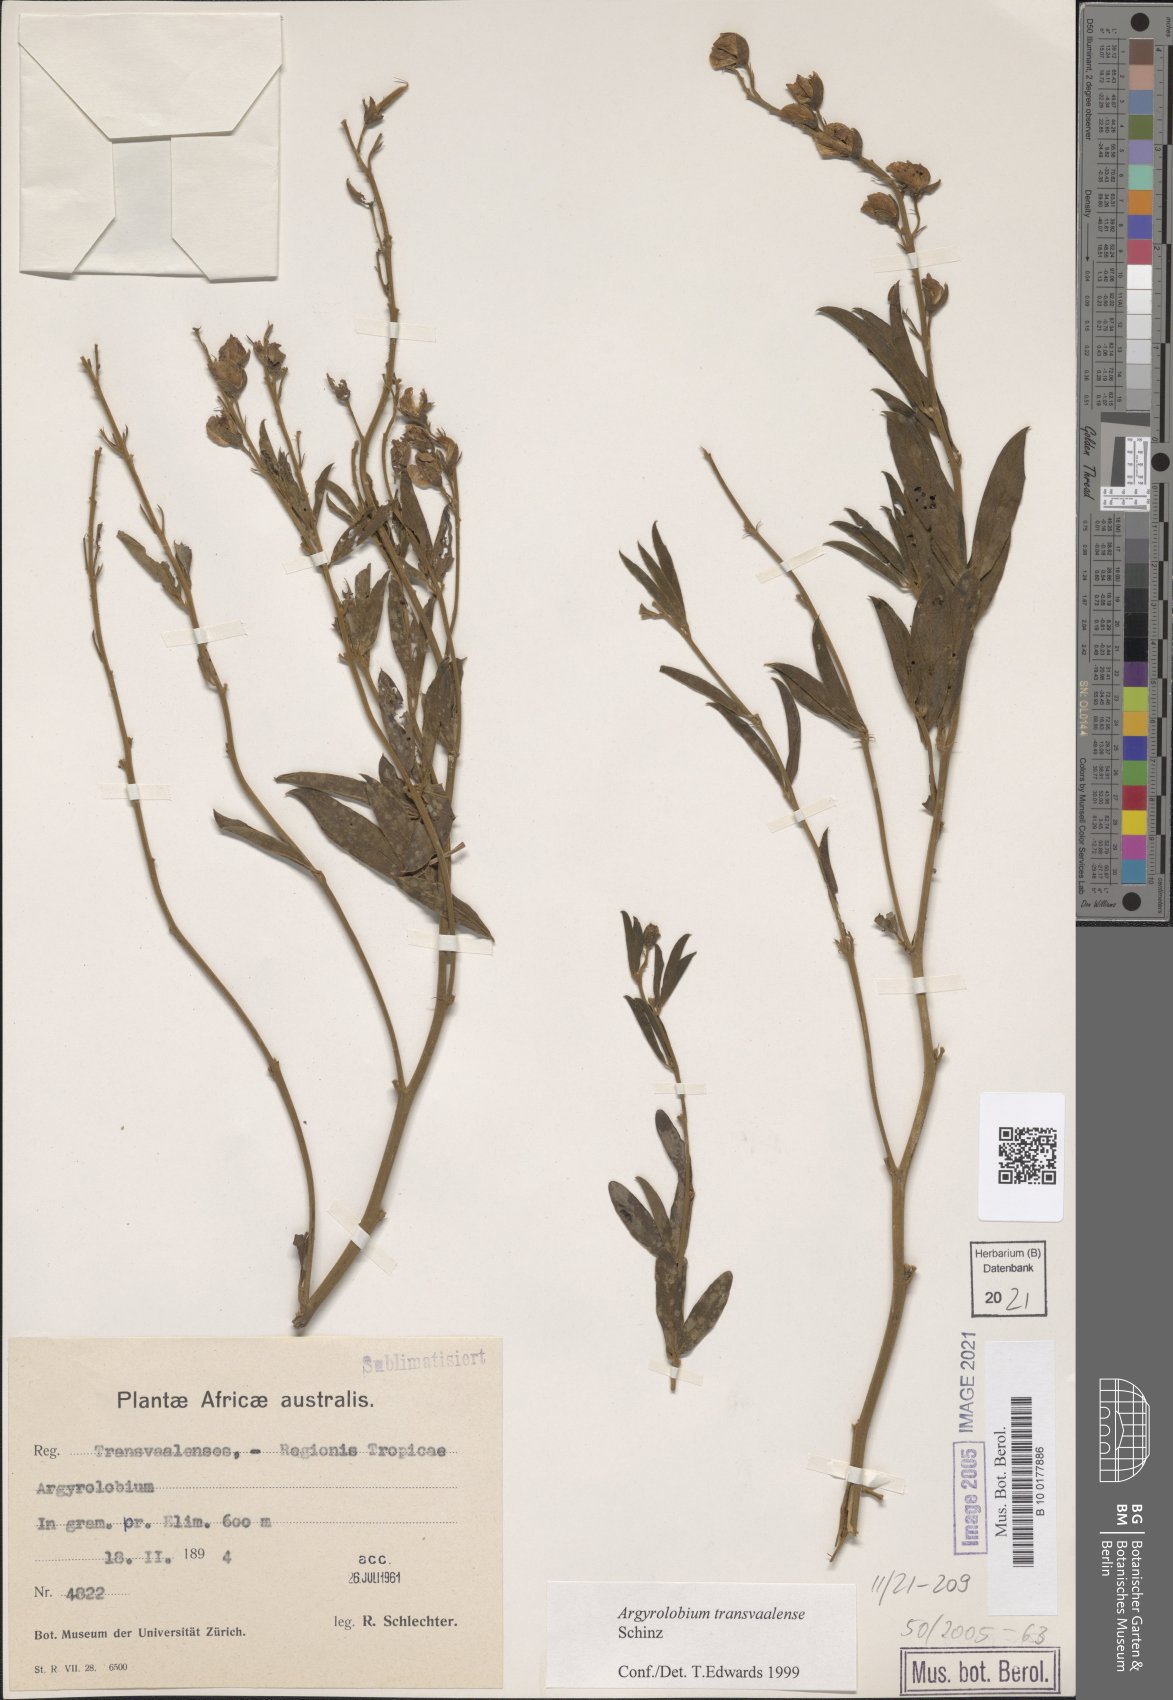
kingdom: Plantae
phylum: Tracheophyta
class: Magnoliopsida
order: Fabales
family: Fabaceae
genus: Argyrolobium
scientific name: Argyrolobium transvaalense
